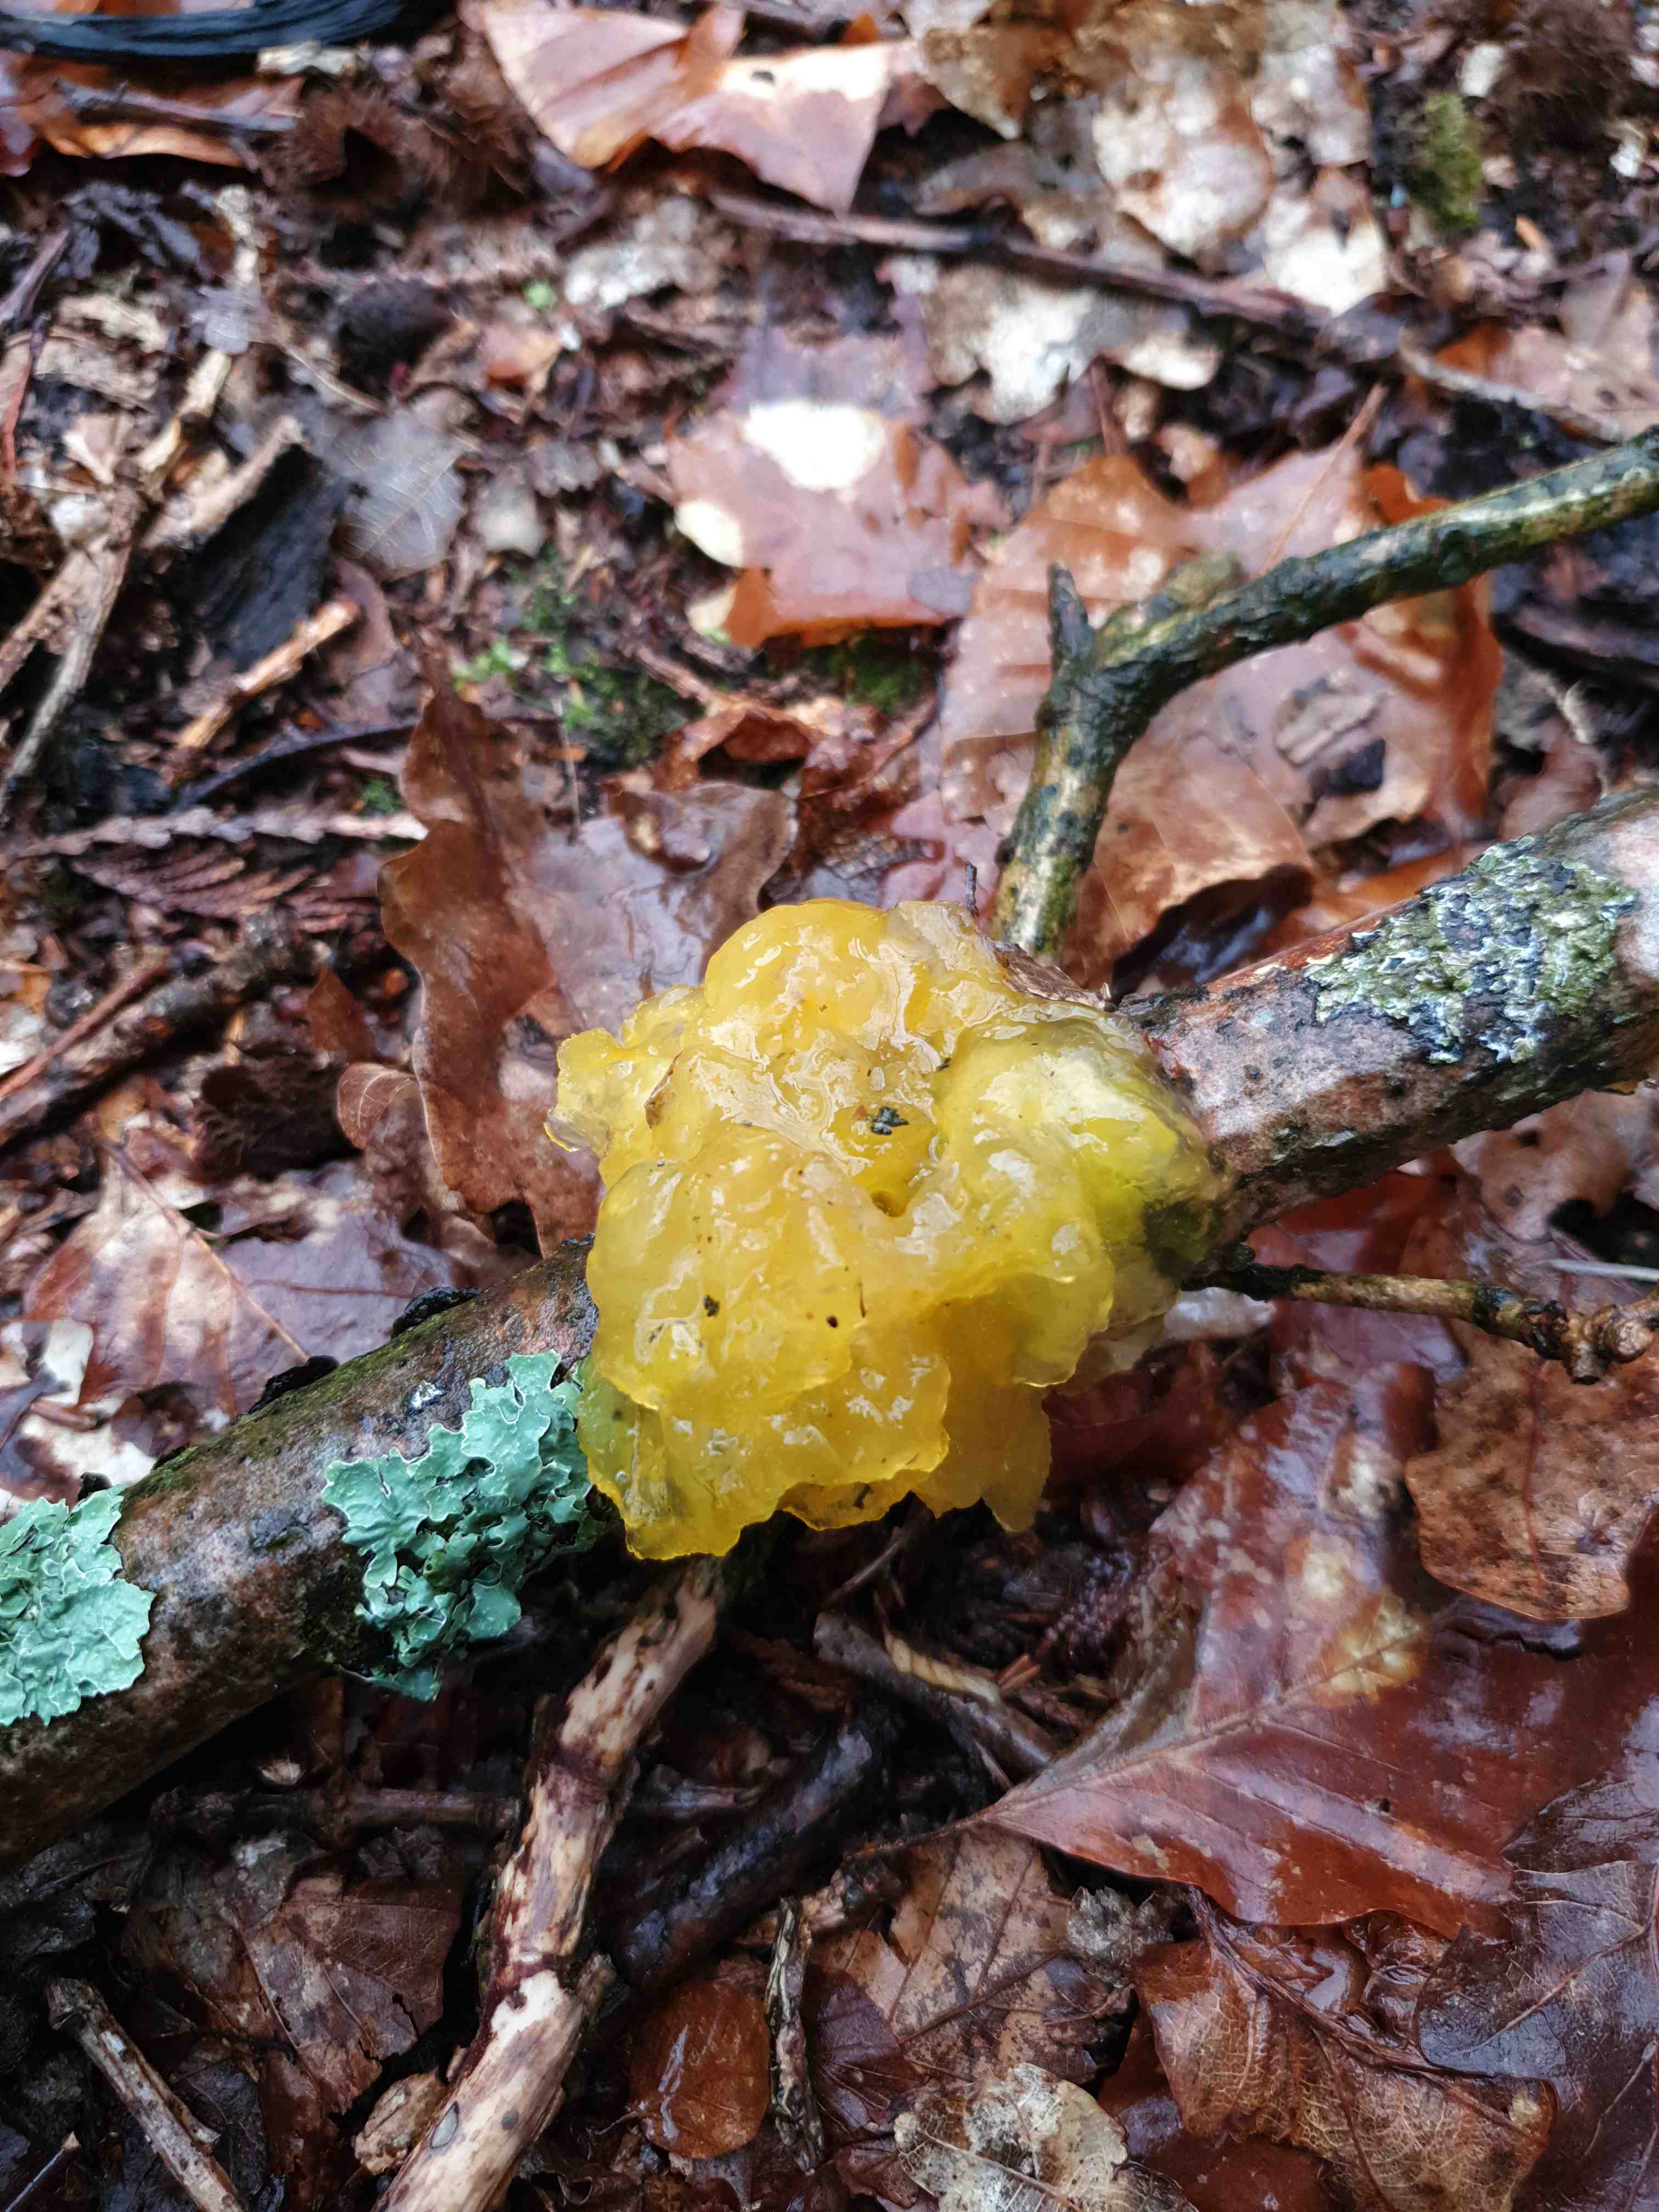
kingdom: Fungi
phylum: Basidiomycota
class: Tremellomycetes
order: Tremellales
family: Tremellaceae
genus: Tremella
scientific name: Tremella mesenterica
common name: gul bævresvamp
